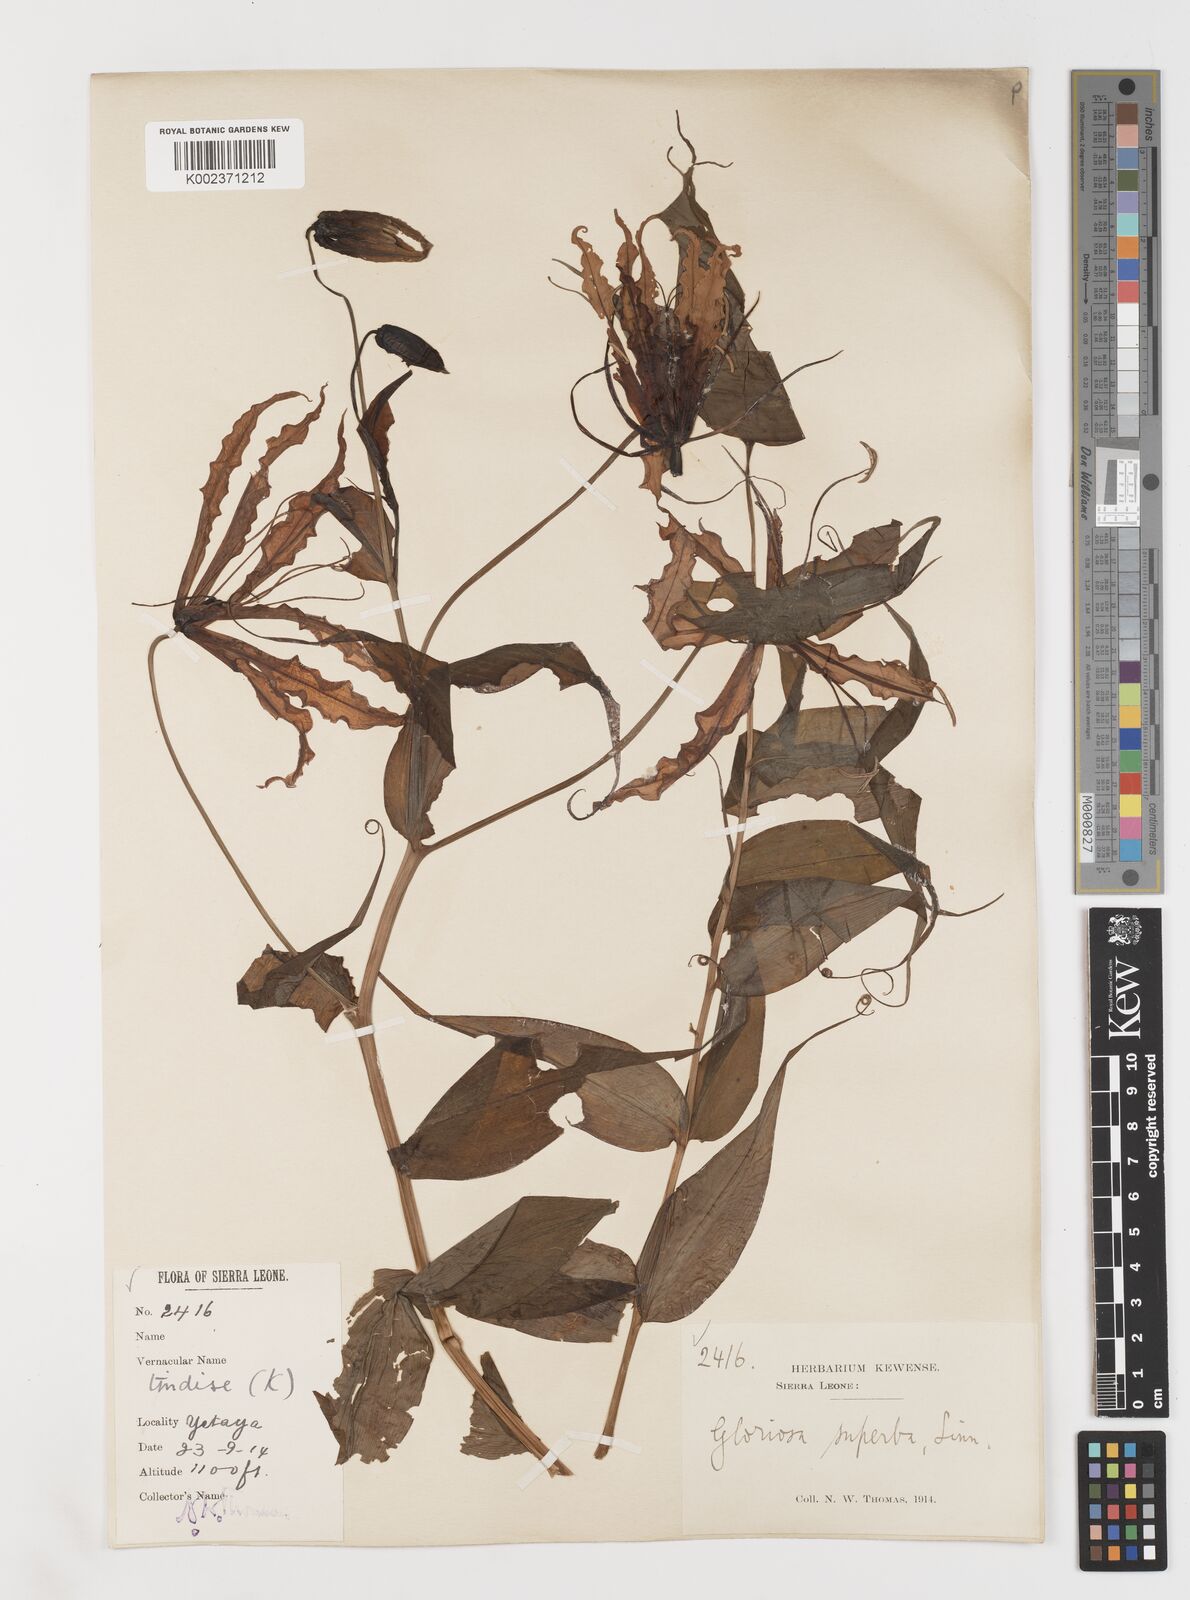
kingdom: Plantae
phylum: Tracheophyta
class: Liliopsida
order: Liliales
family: Colchicaceae
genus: Gloriosa
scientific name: Gloriosa superba
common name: Flame lily
